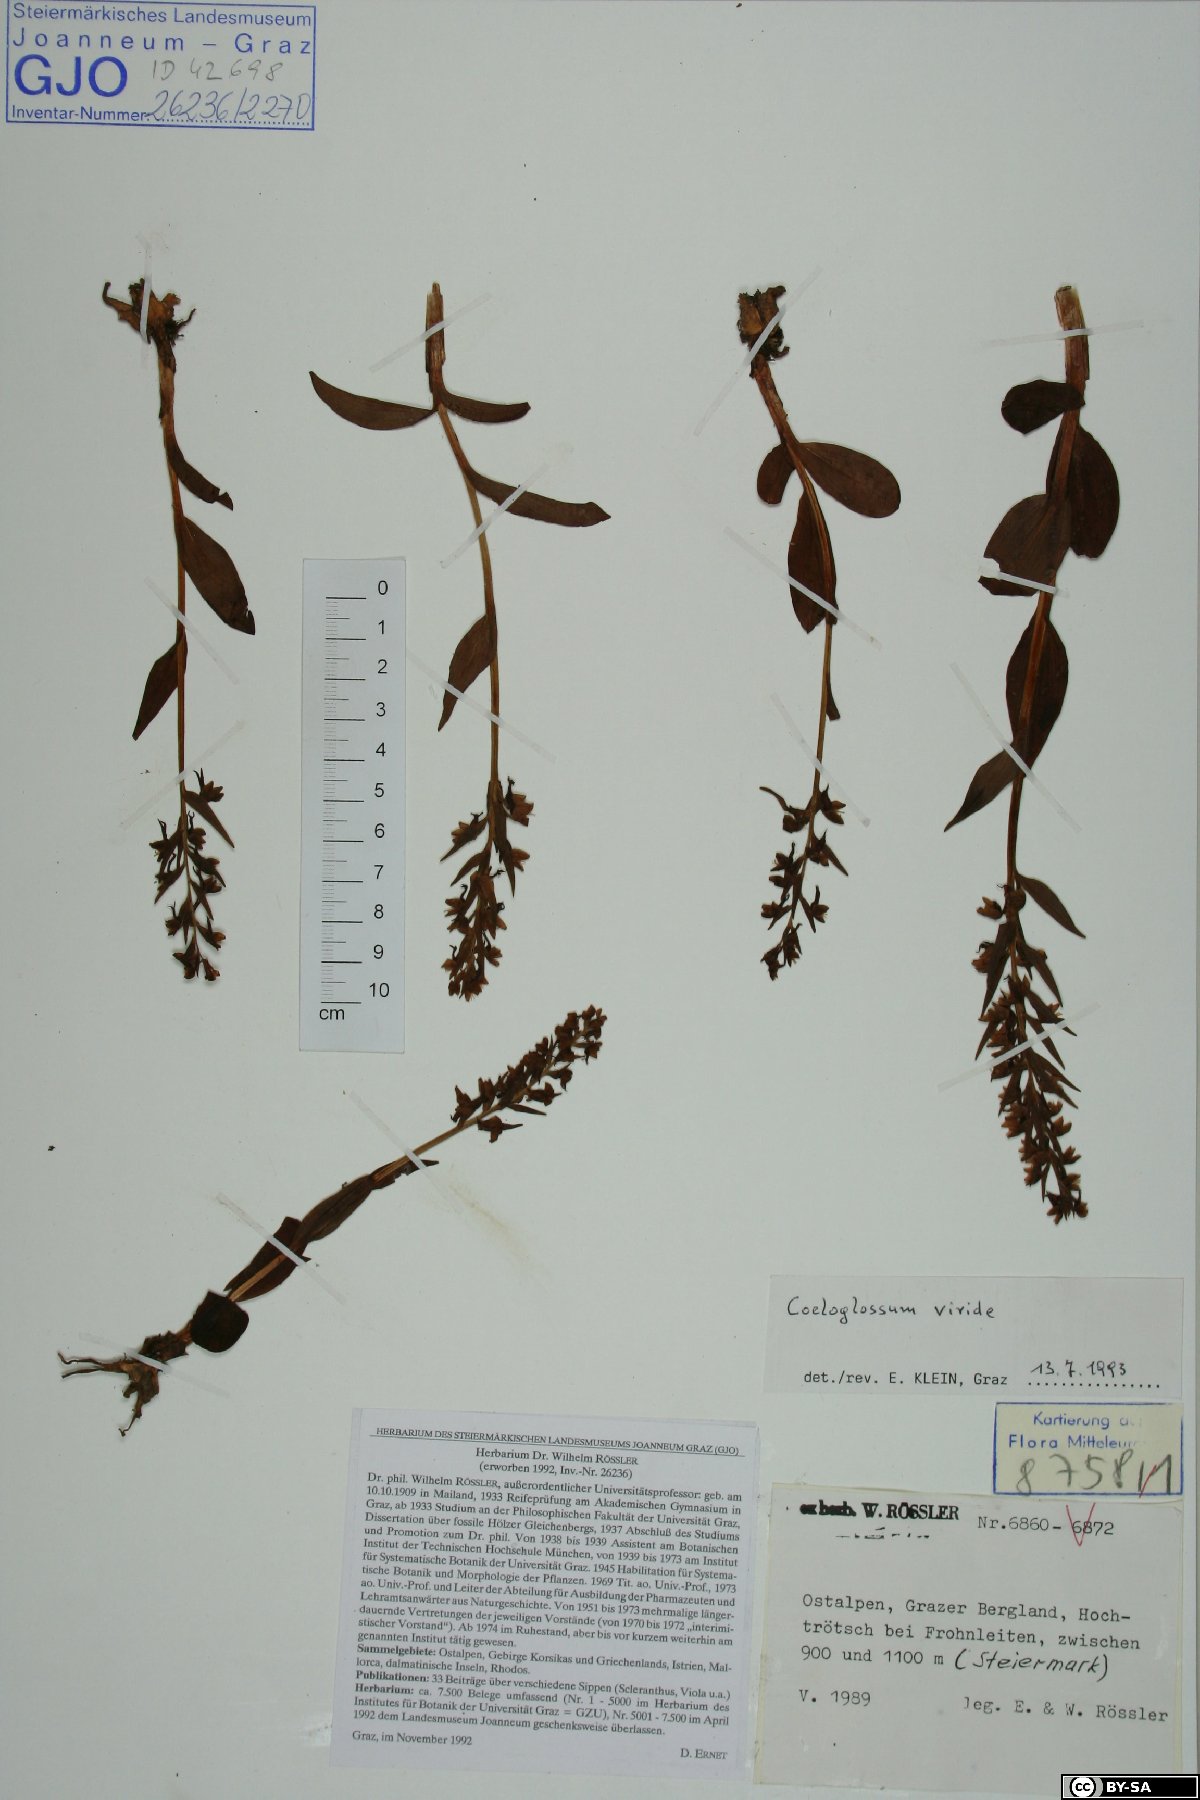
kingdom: Plantae
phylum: Tracheophyta
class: Liliopsida
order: Asparagales
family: Orchidaceae
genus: Dactylorhiza
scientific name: Dactylorhiza viridis
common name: Longbract frog orchid
